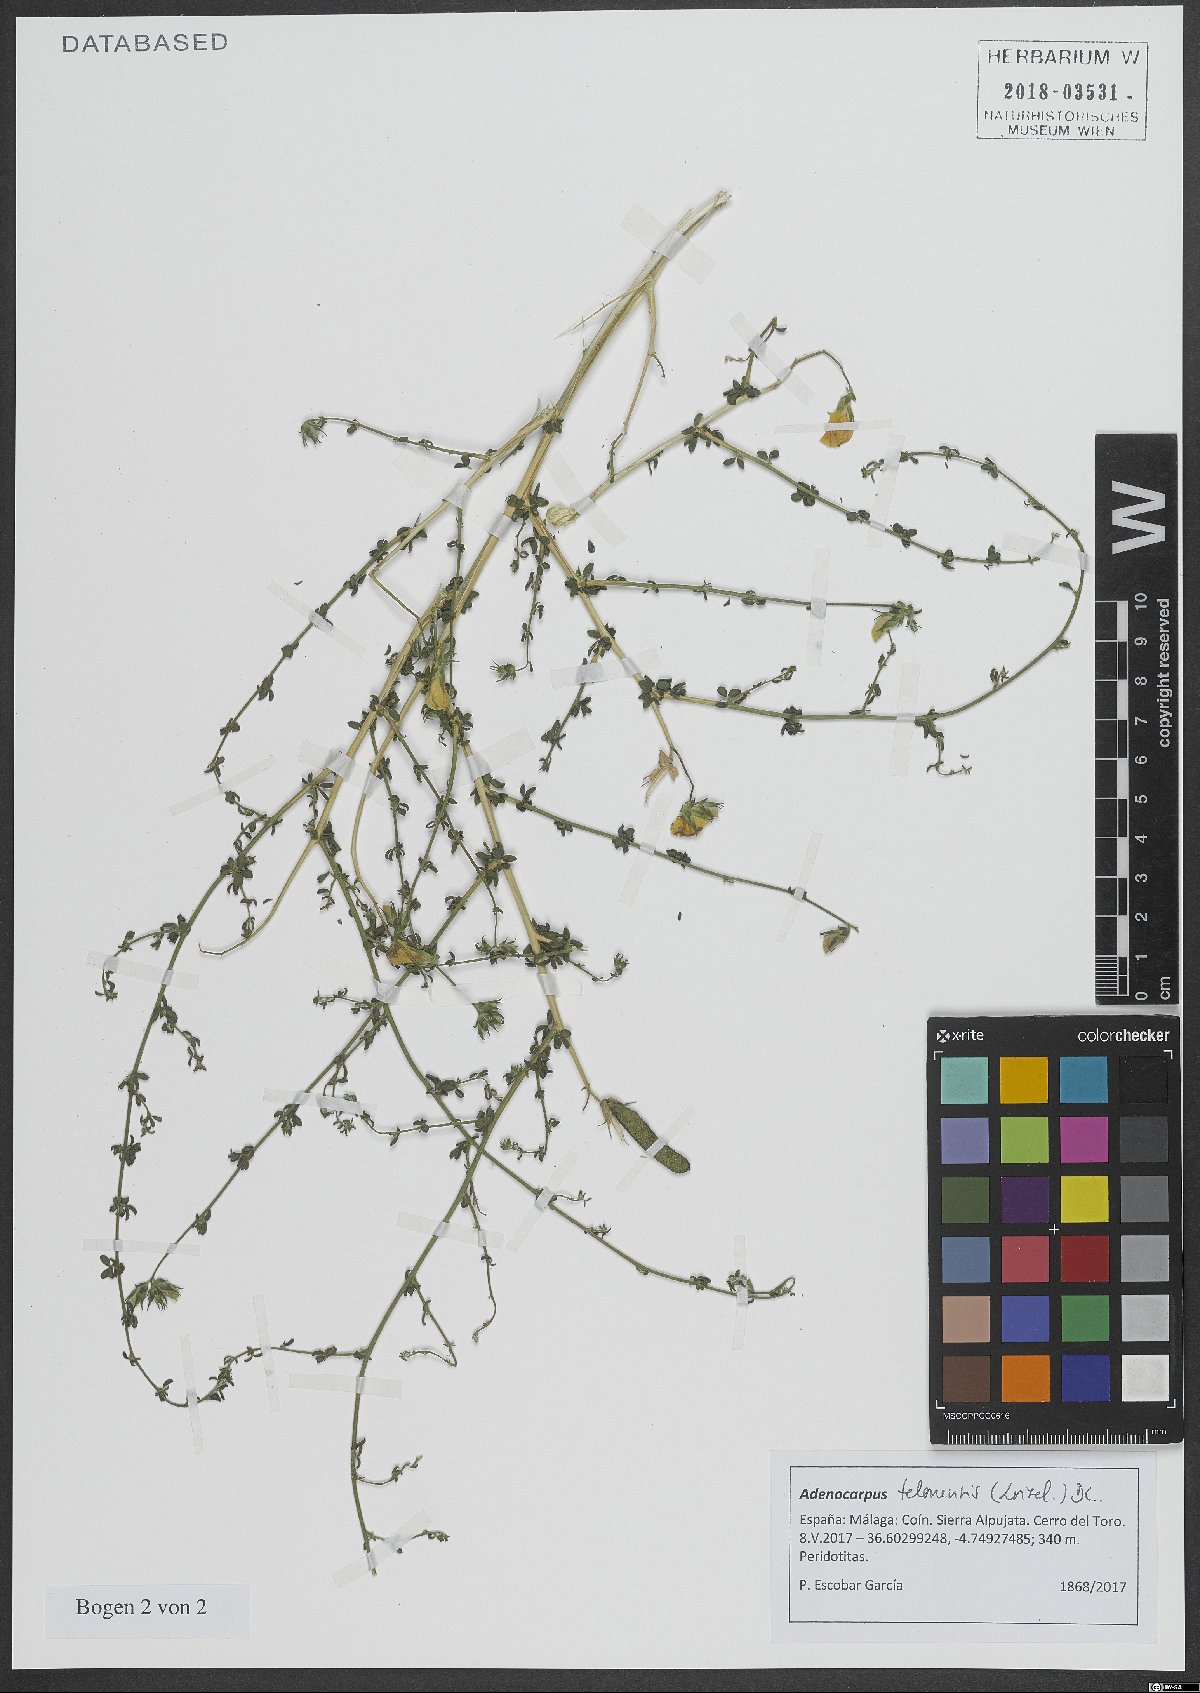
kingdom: Plantae
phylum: Tracheophyta
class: Magnoliopsida
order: Fabales
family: Fabaceae
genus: Adenocarpus
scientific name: Adenocarpus telonensis
